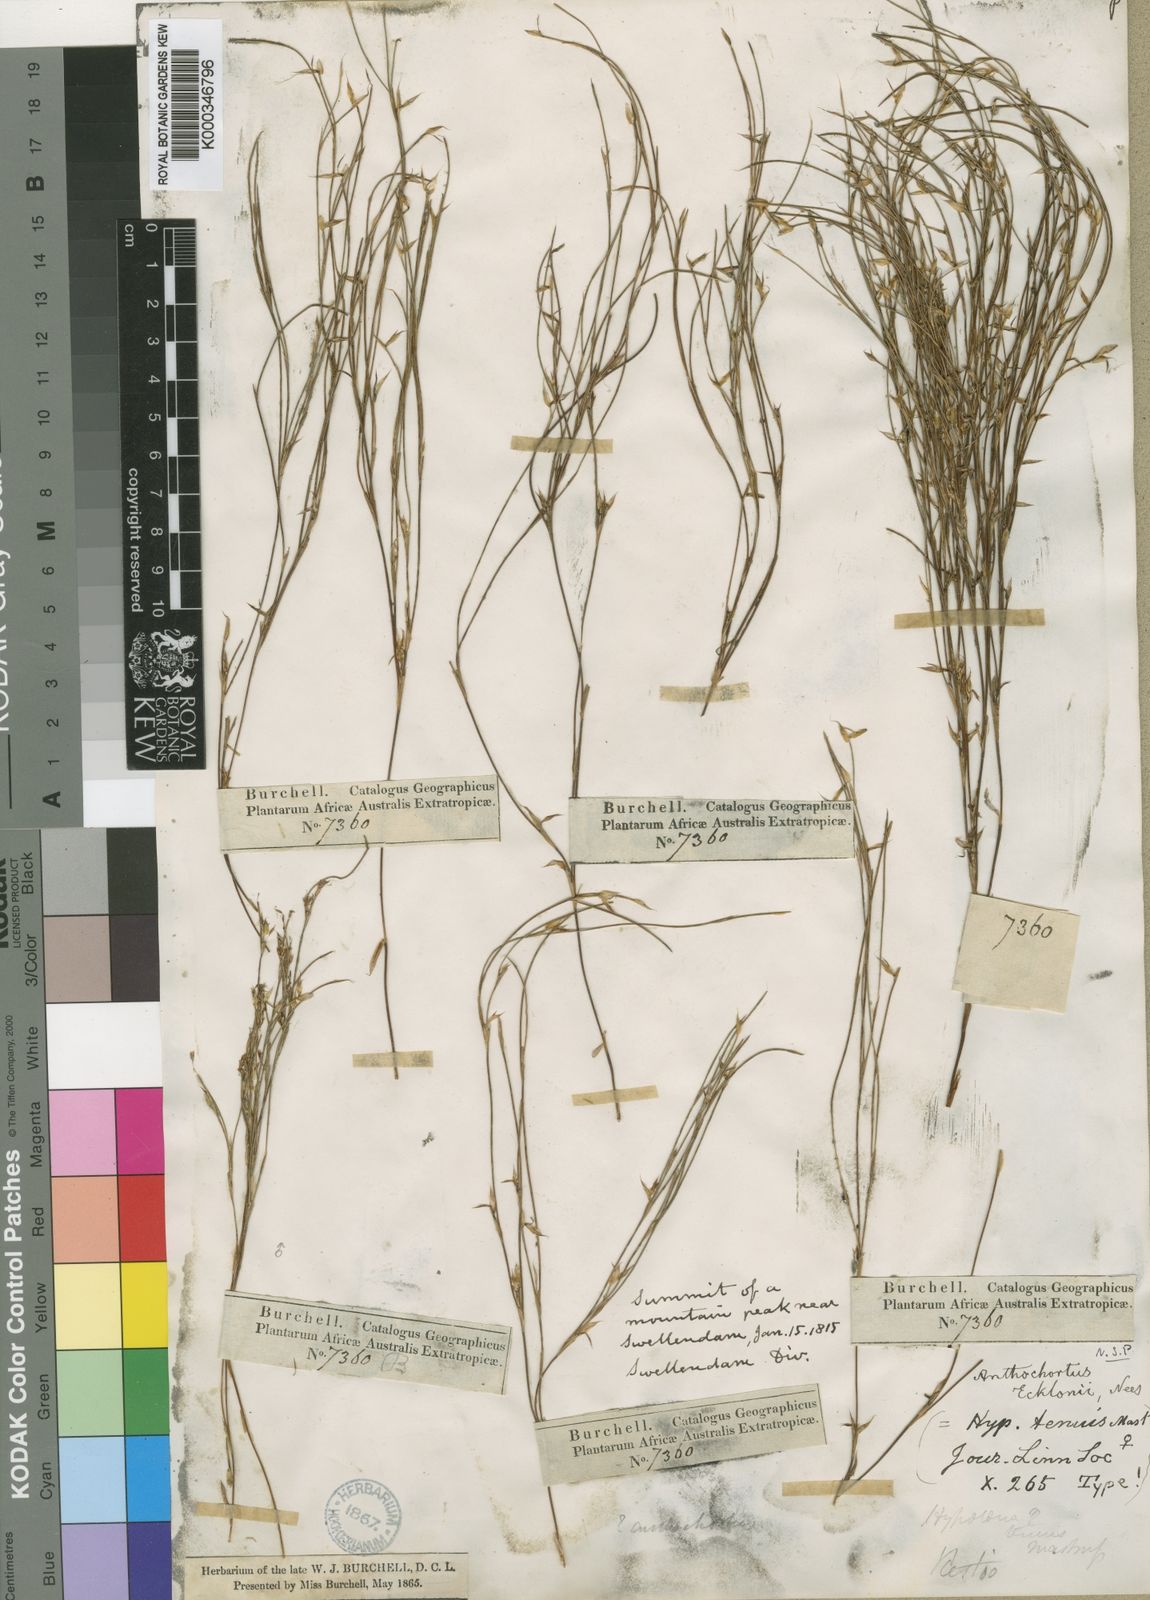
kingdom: Plantae
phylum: Tracheophyta
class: Liliopsida
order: Poales
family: Restionaceae
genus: Anthochortus
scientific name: Anthochortus ecklonii
